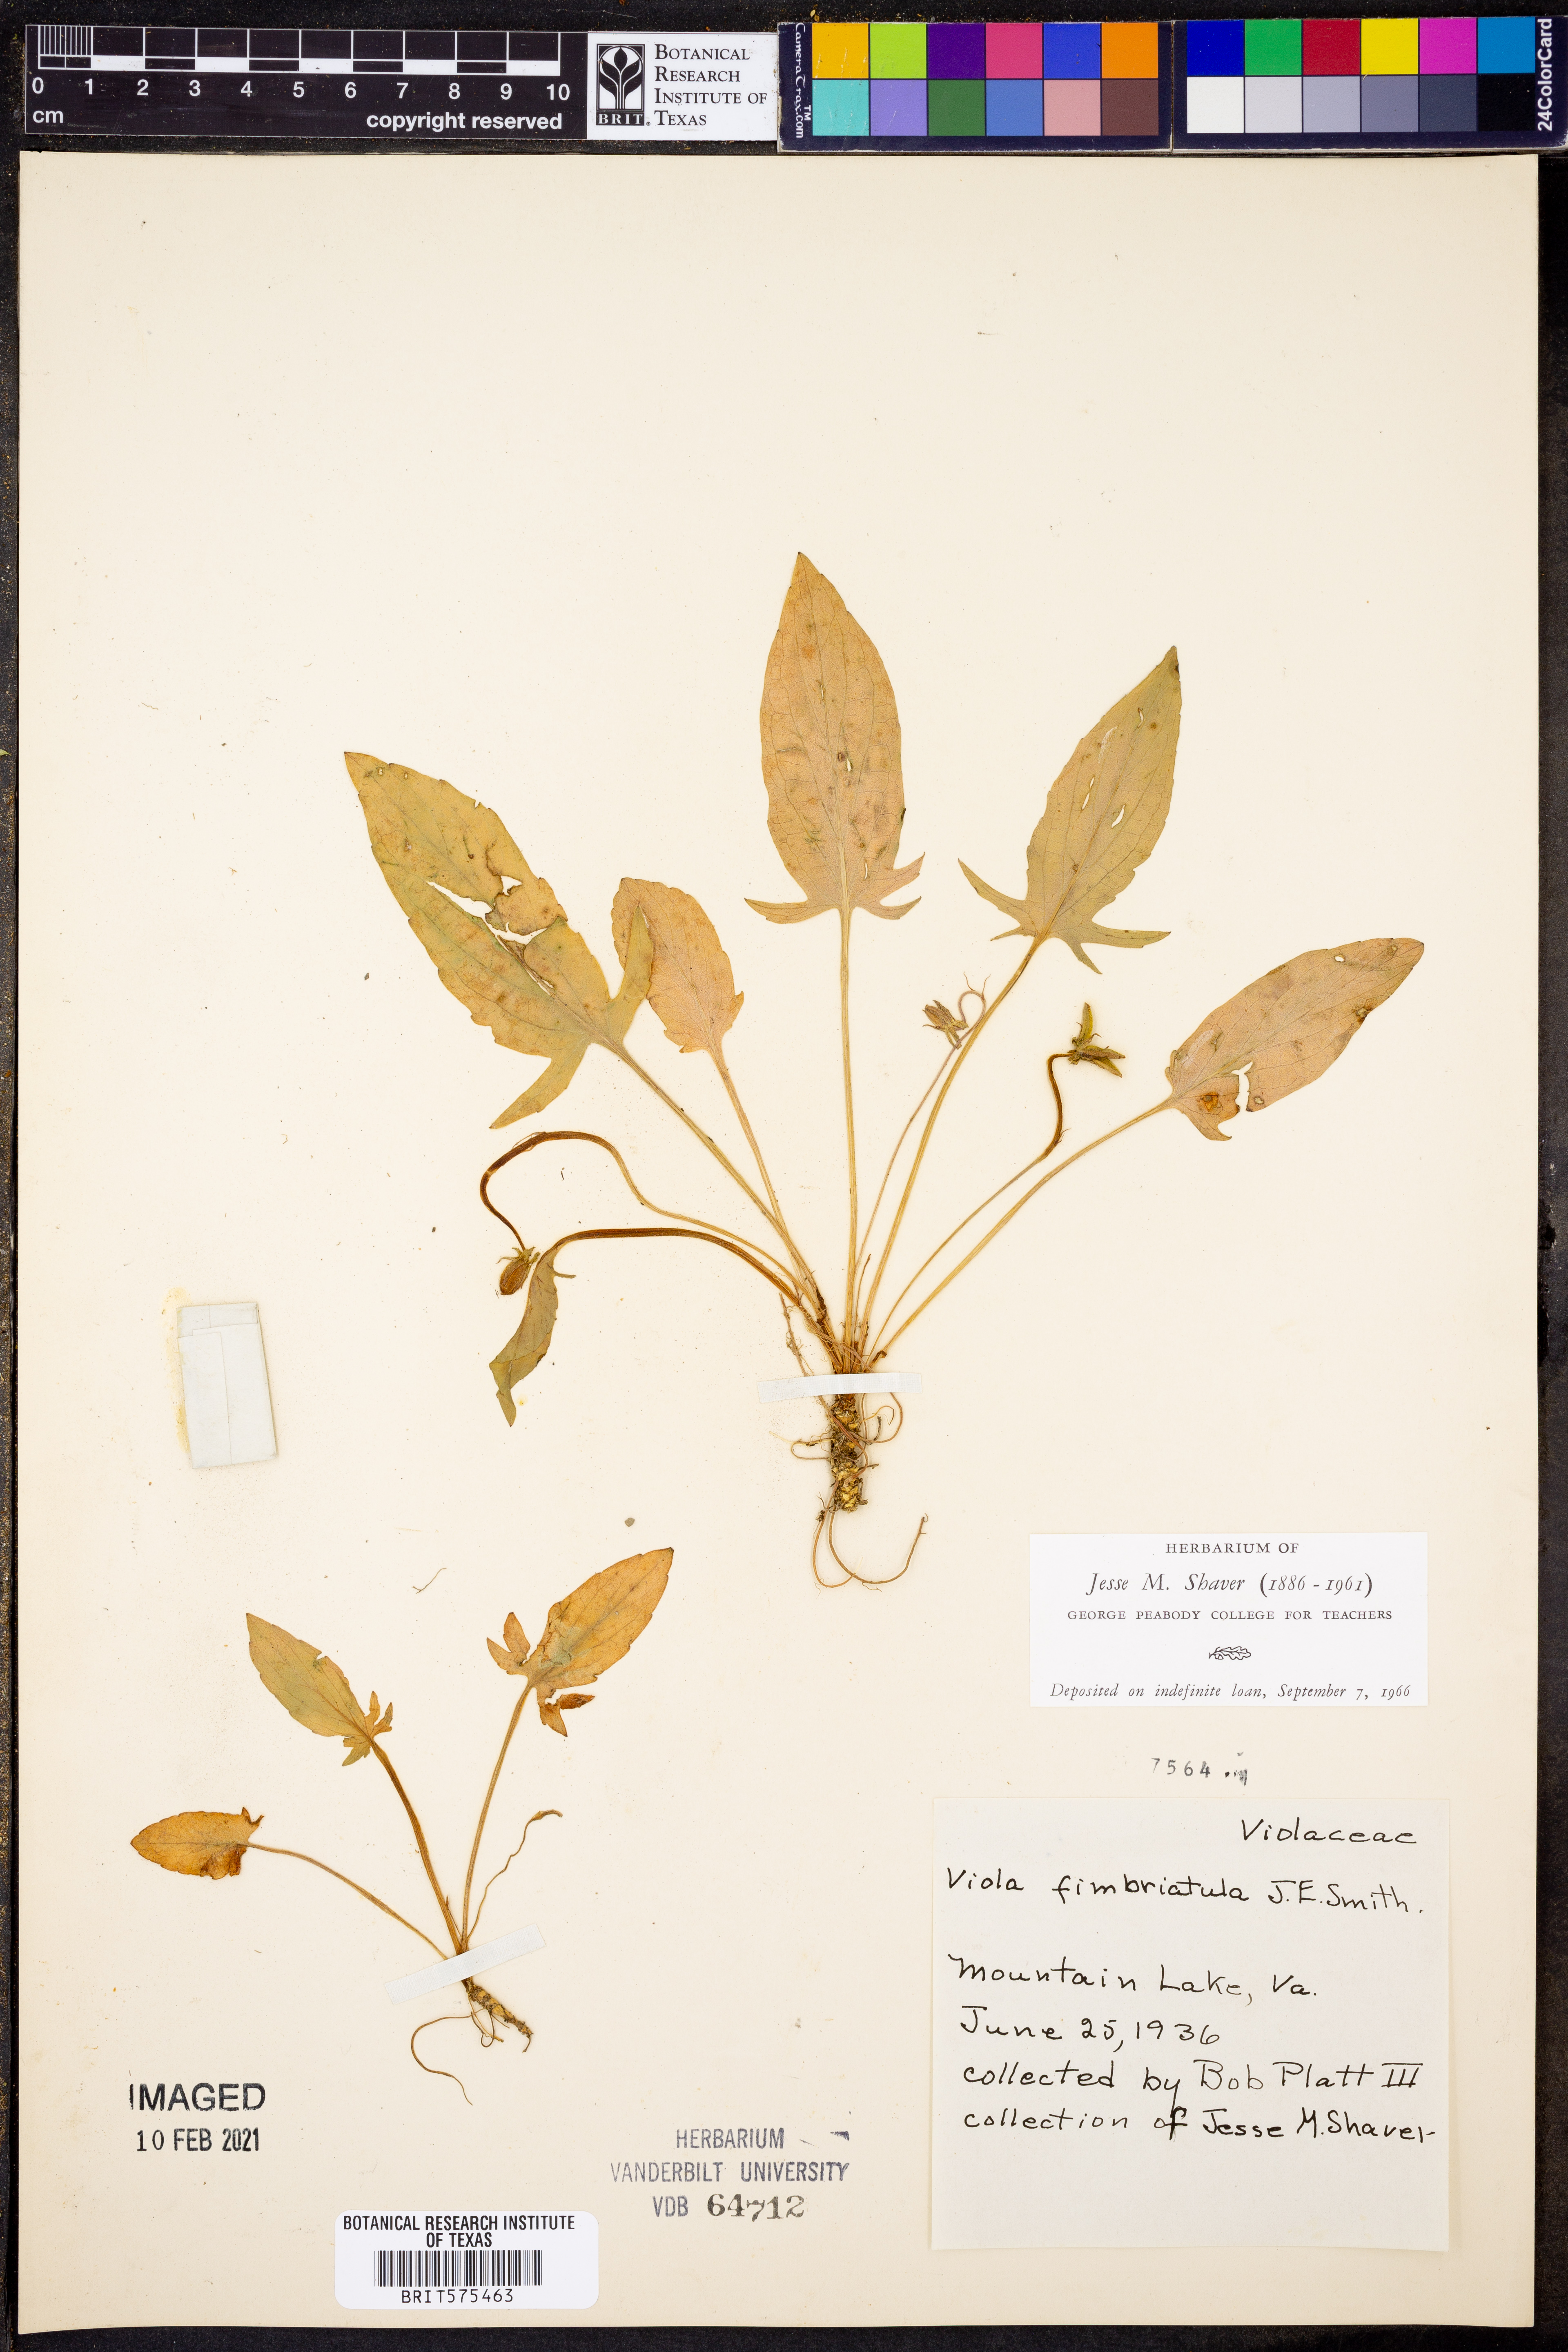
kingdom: Plantae
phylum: Tracheophyta
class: Magnoliopsida
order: Malpighiales
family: Violaceae
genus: Viola
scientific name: Viola fimbriatula
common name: Sand violet
